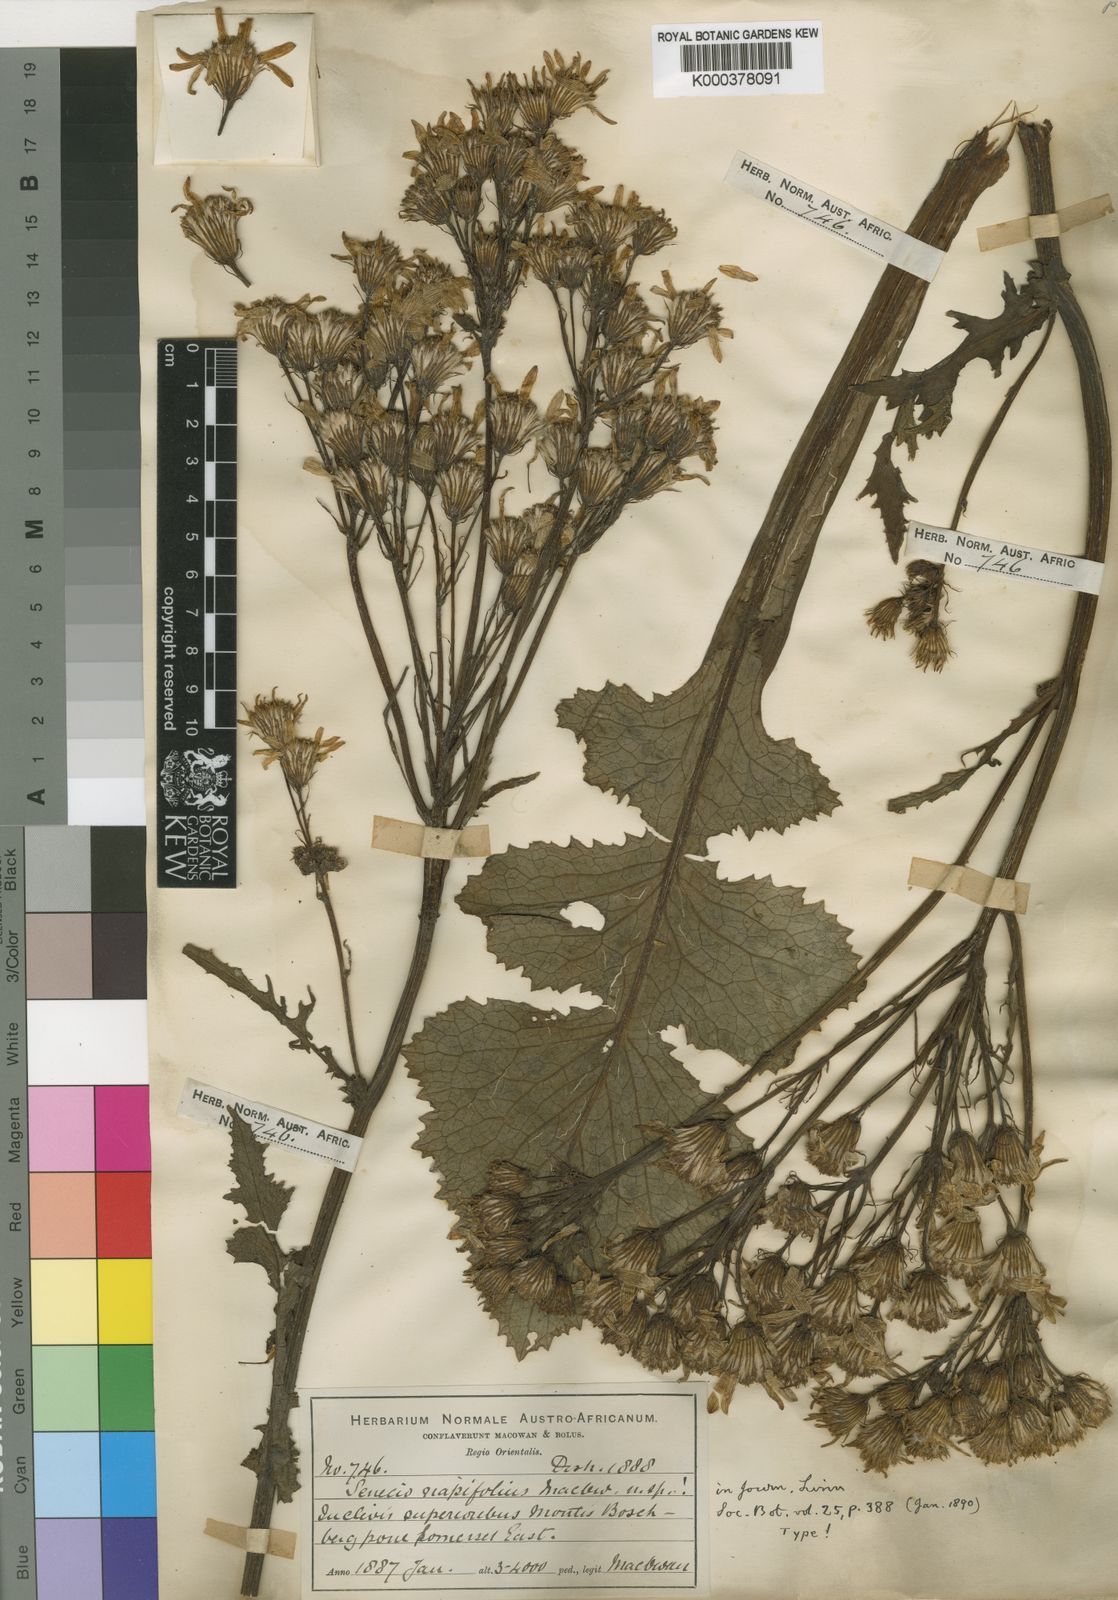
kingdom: Plantae
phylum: Tracheophyta
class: Magnoliopsida
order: Asterales
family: Asteraceae
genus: Senecio
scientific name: Senecio napifolius
